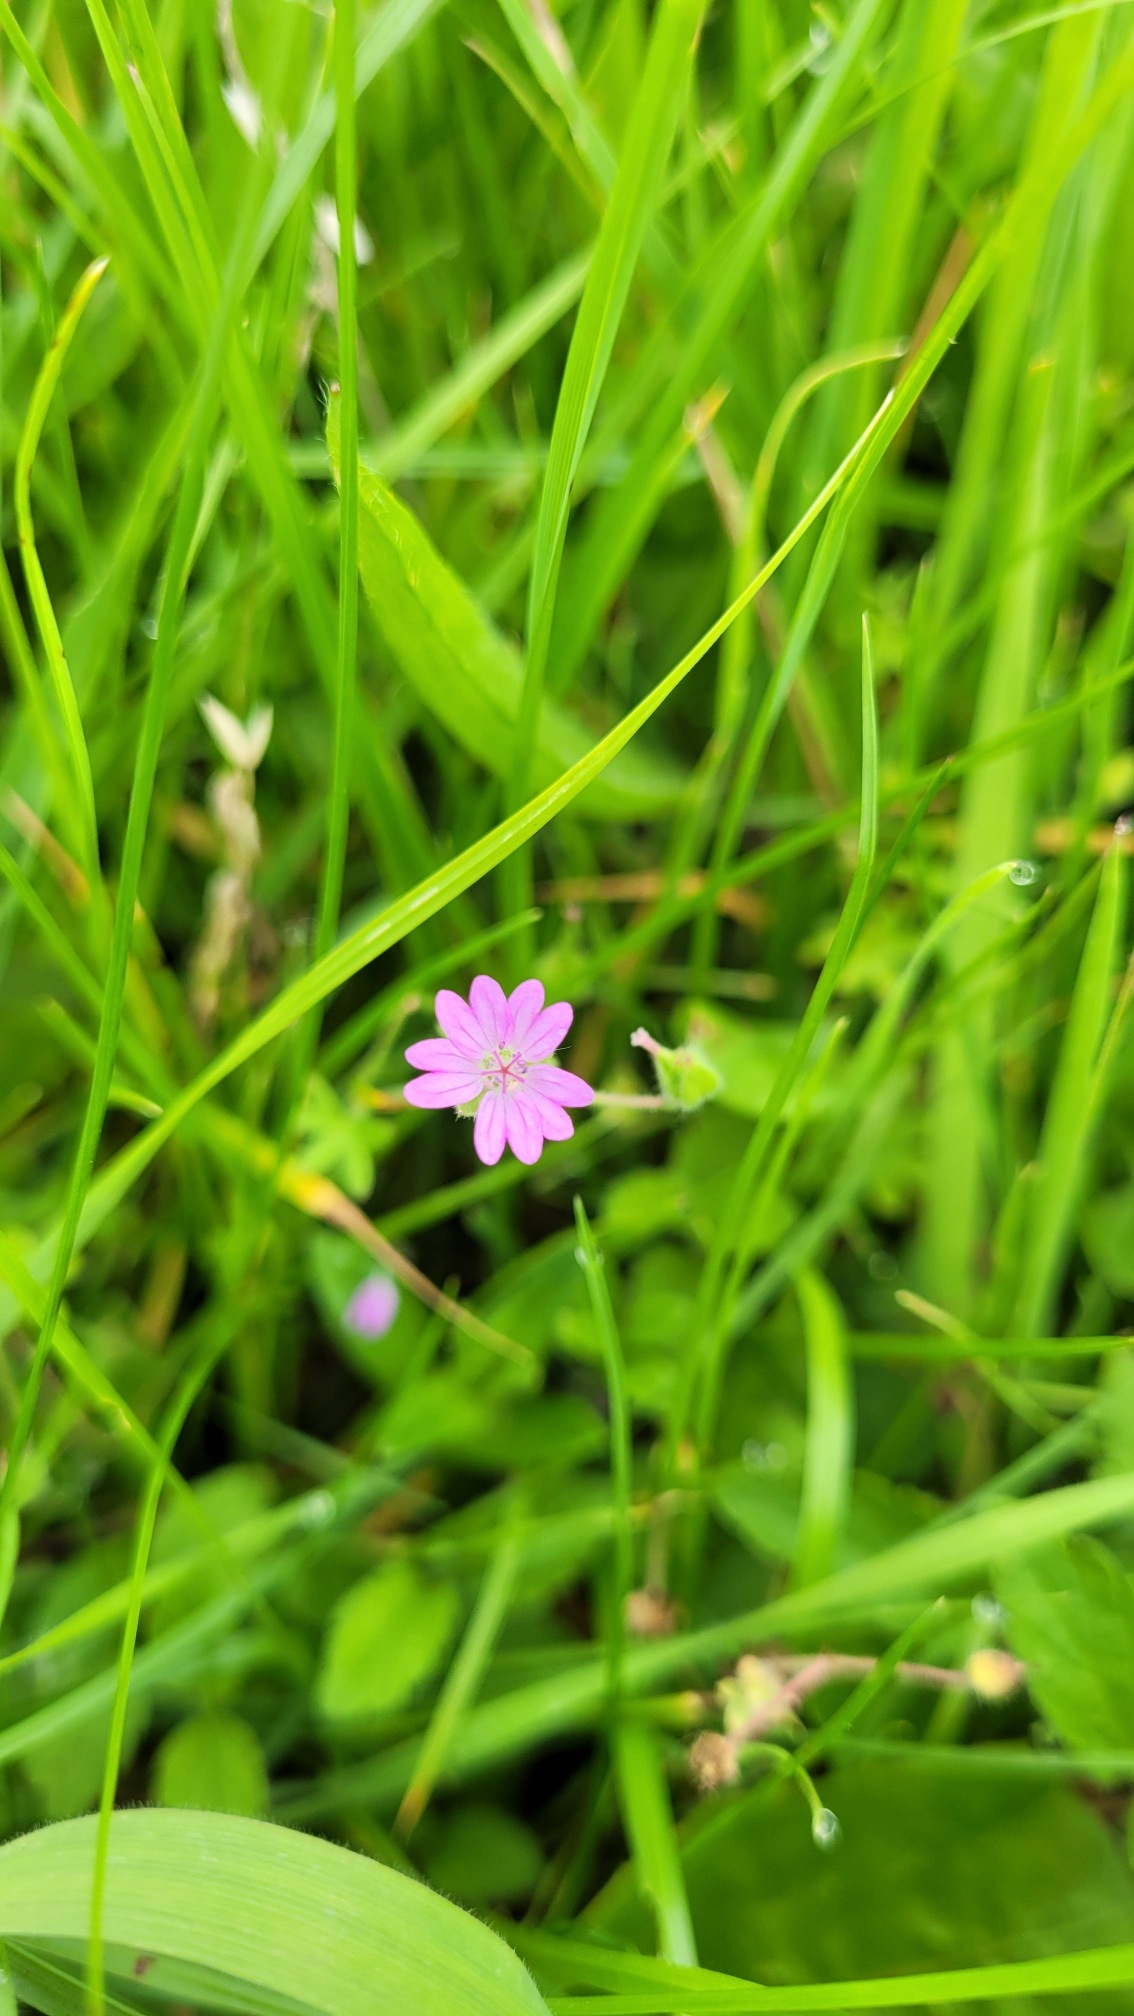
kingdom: Plantae
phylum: Tracheophyta
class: Magnoliopsida
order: Geraniales
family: Geraniaceae
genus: Geranium
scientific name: Geranium molle
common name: Blød storkenæb
